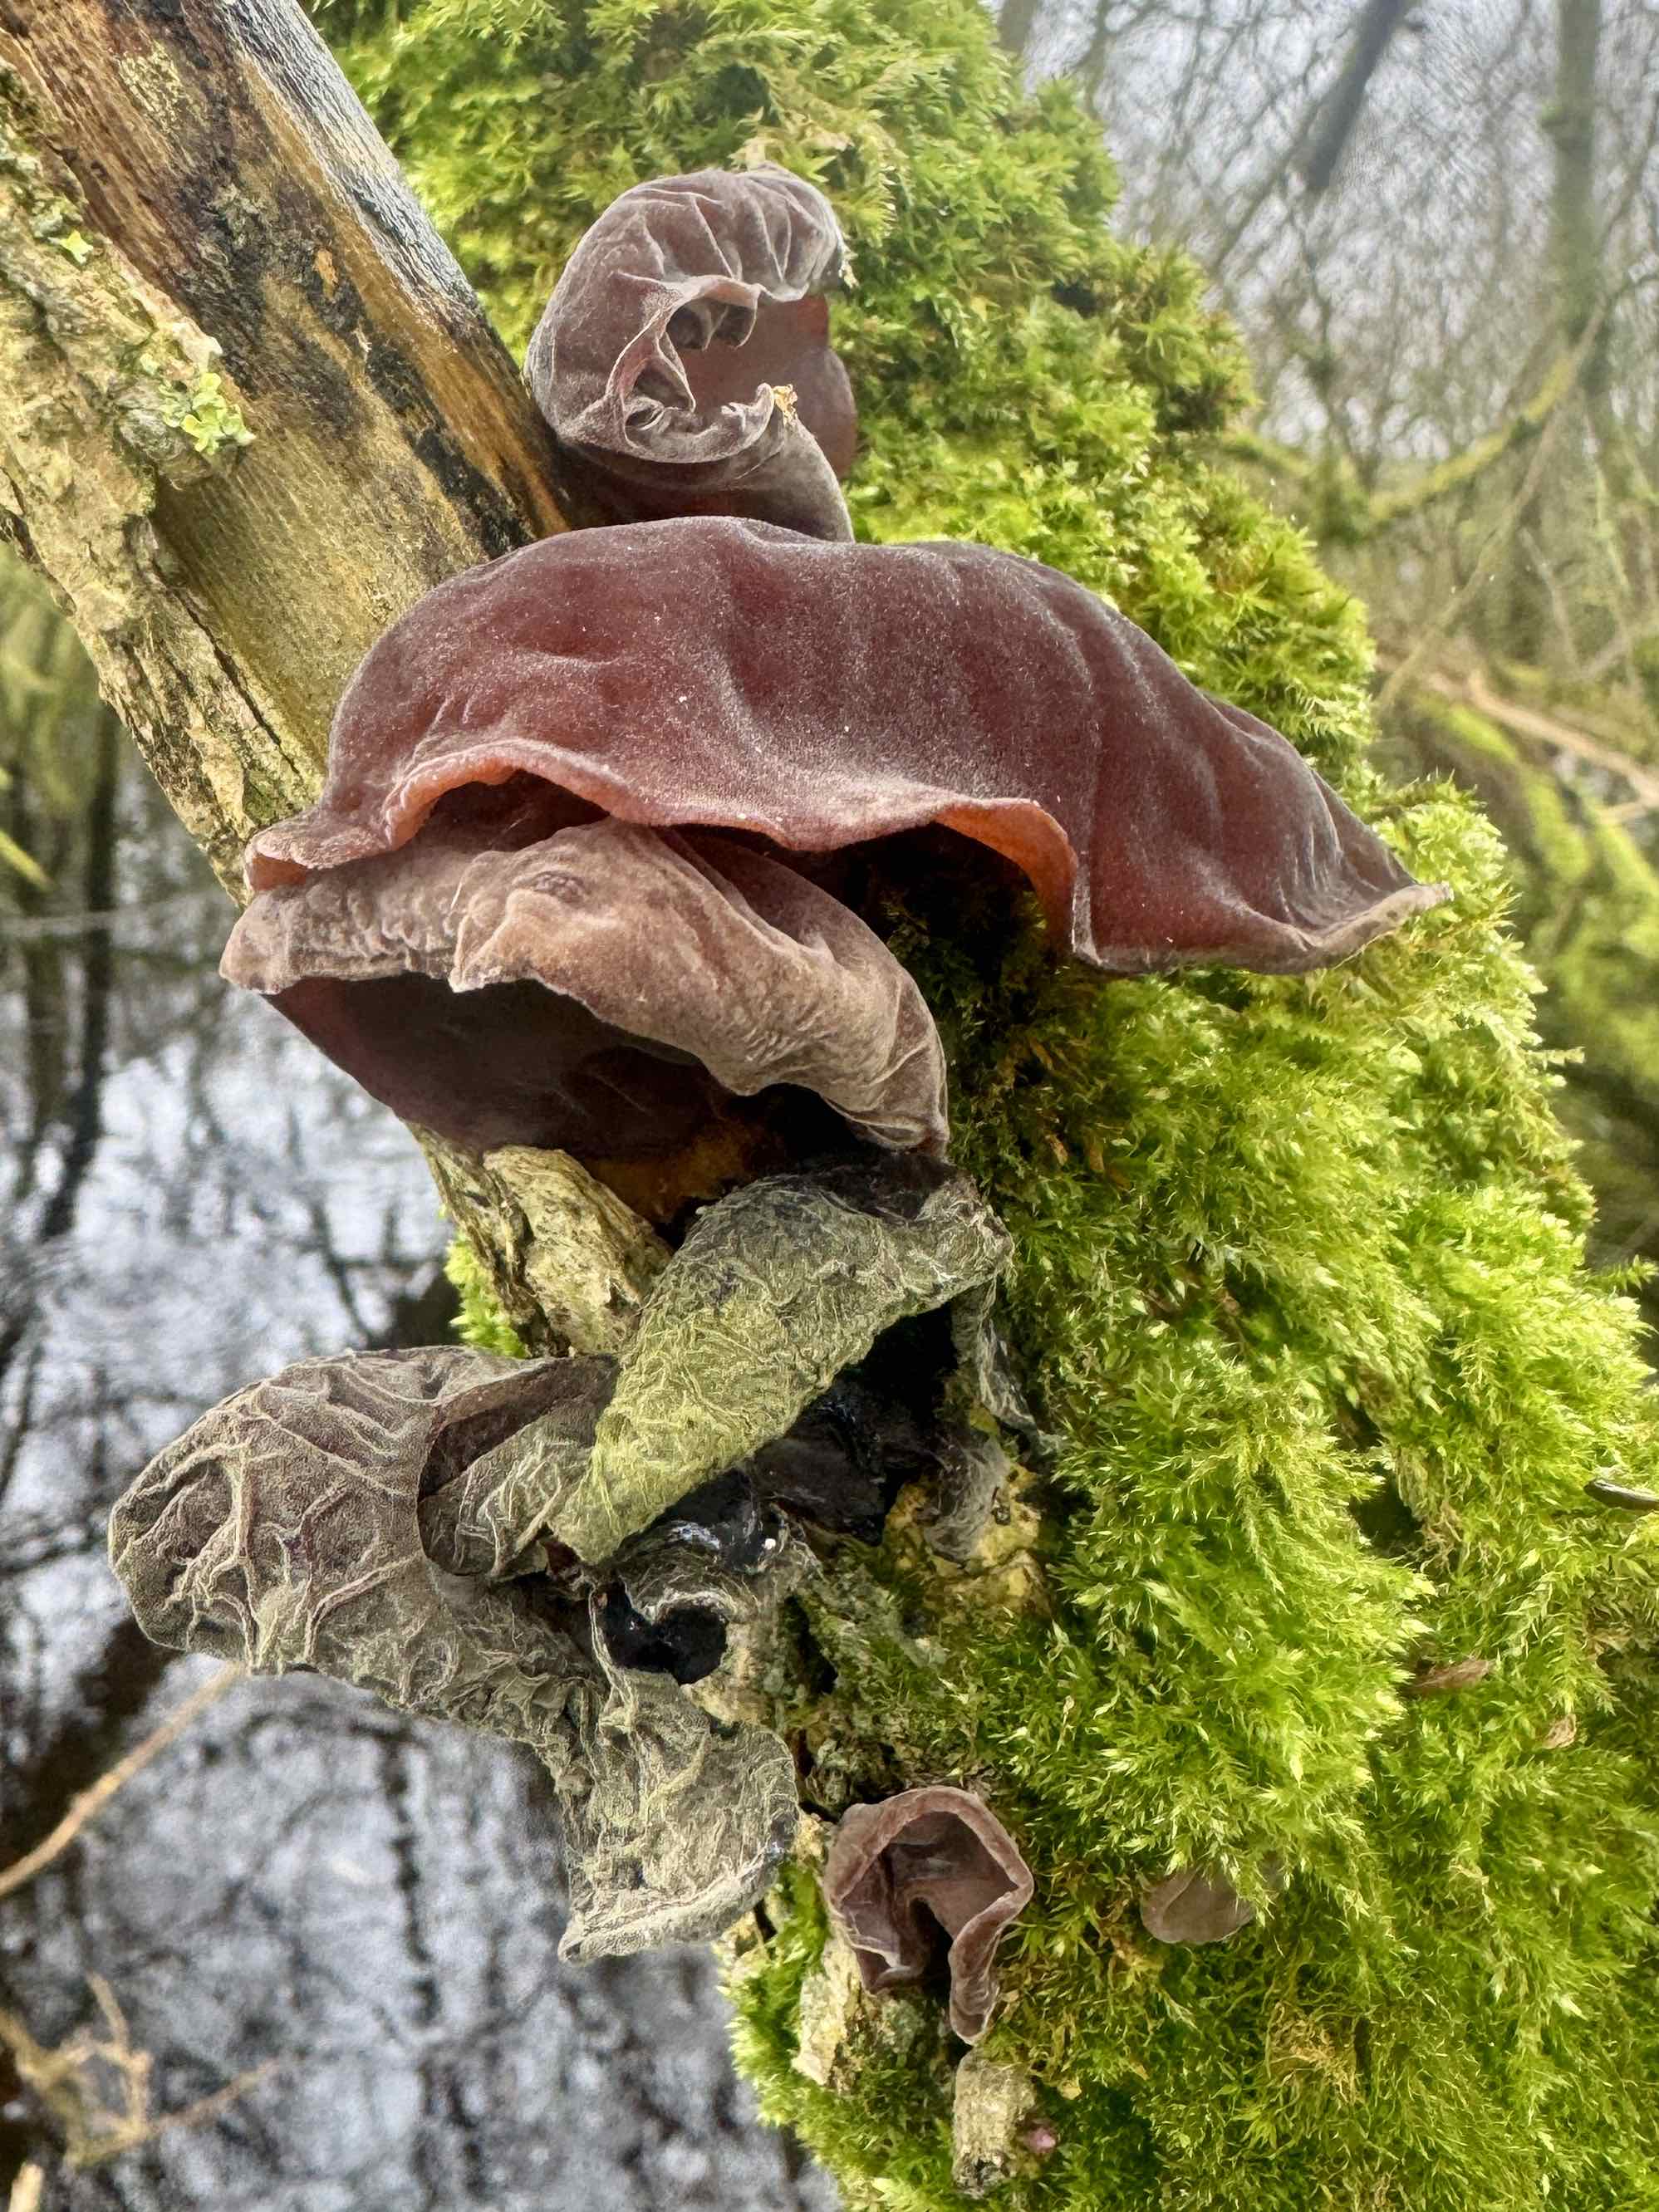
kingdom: Fungi
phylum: Basidiomycota
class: Agaricomycetes
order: Auriculariales
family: Auriculariaceae
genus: Auricularia
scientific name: Auricularia auricula-judae
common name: almindelig judasøre
